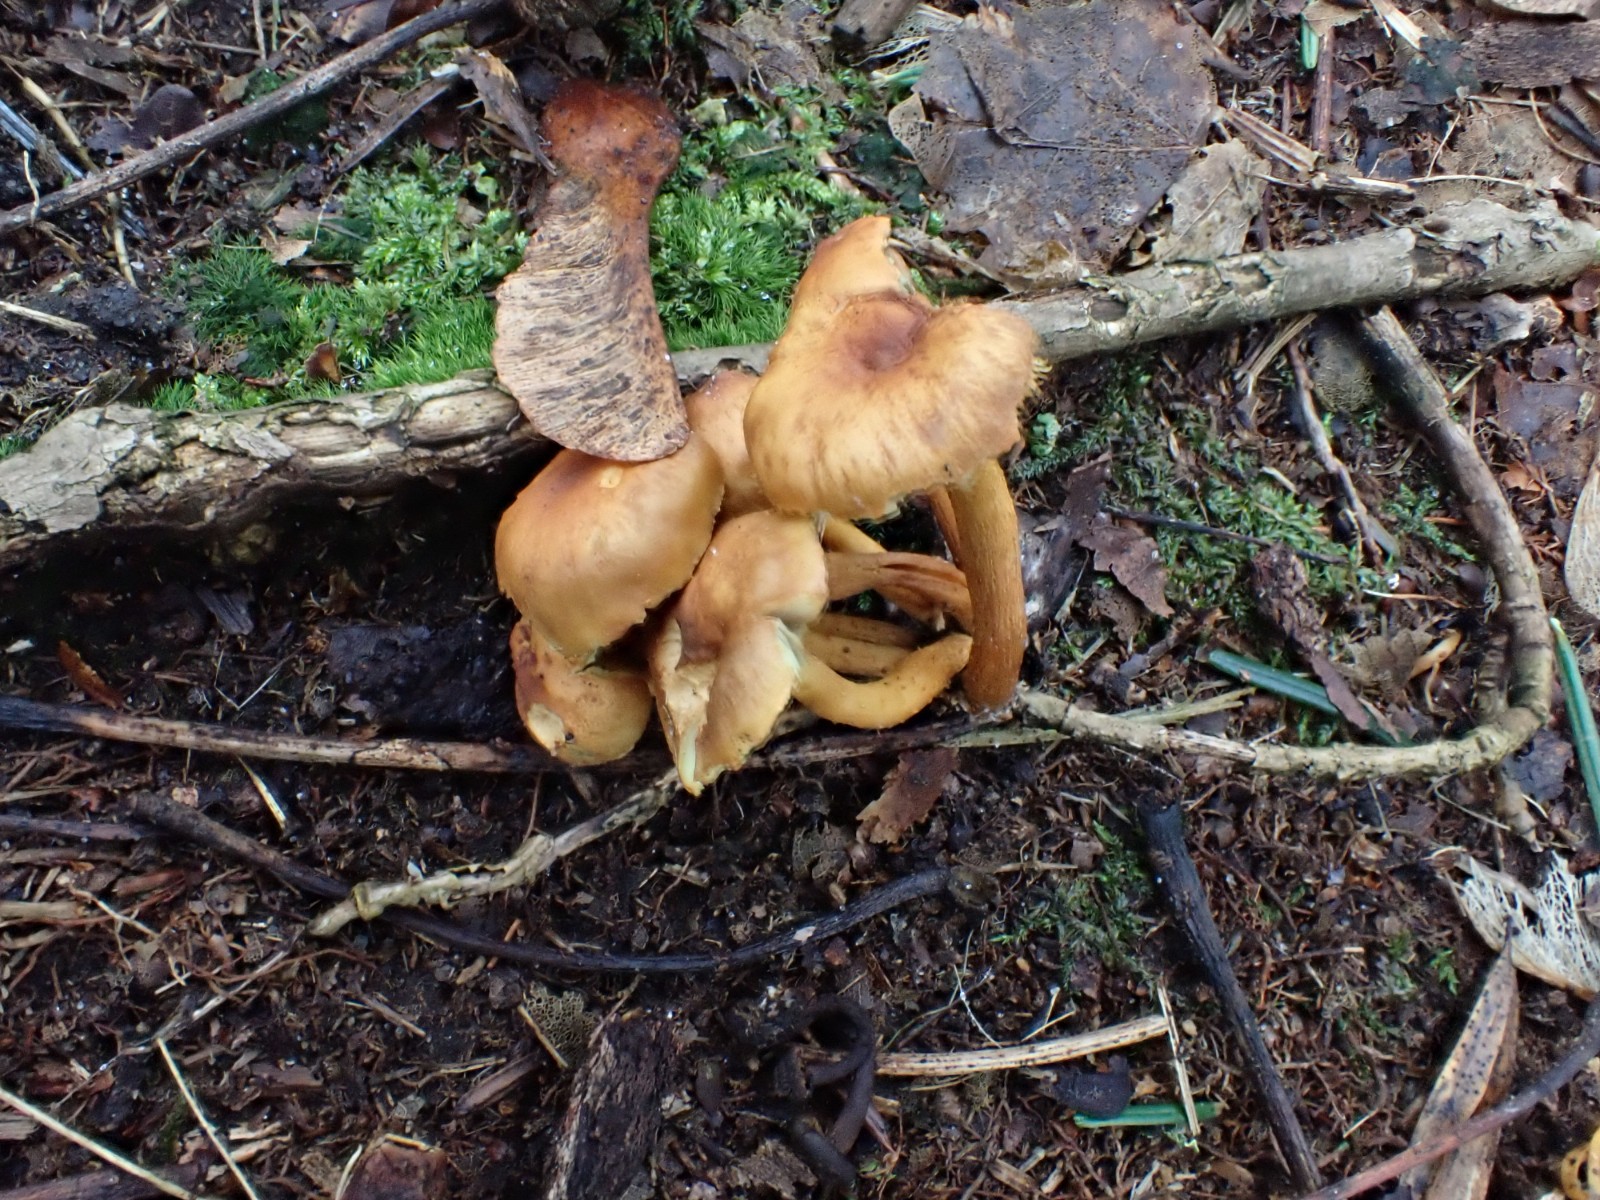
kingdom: Fungi
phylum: Basidiomycota
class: Agaricomycetes
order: Agaricales
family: Strophariaceae
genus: Hypholoma
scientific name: Hypholoma fasciculare
